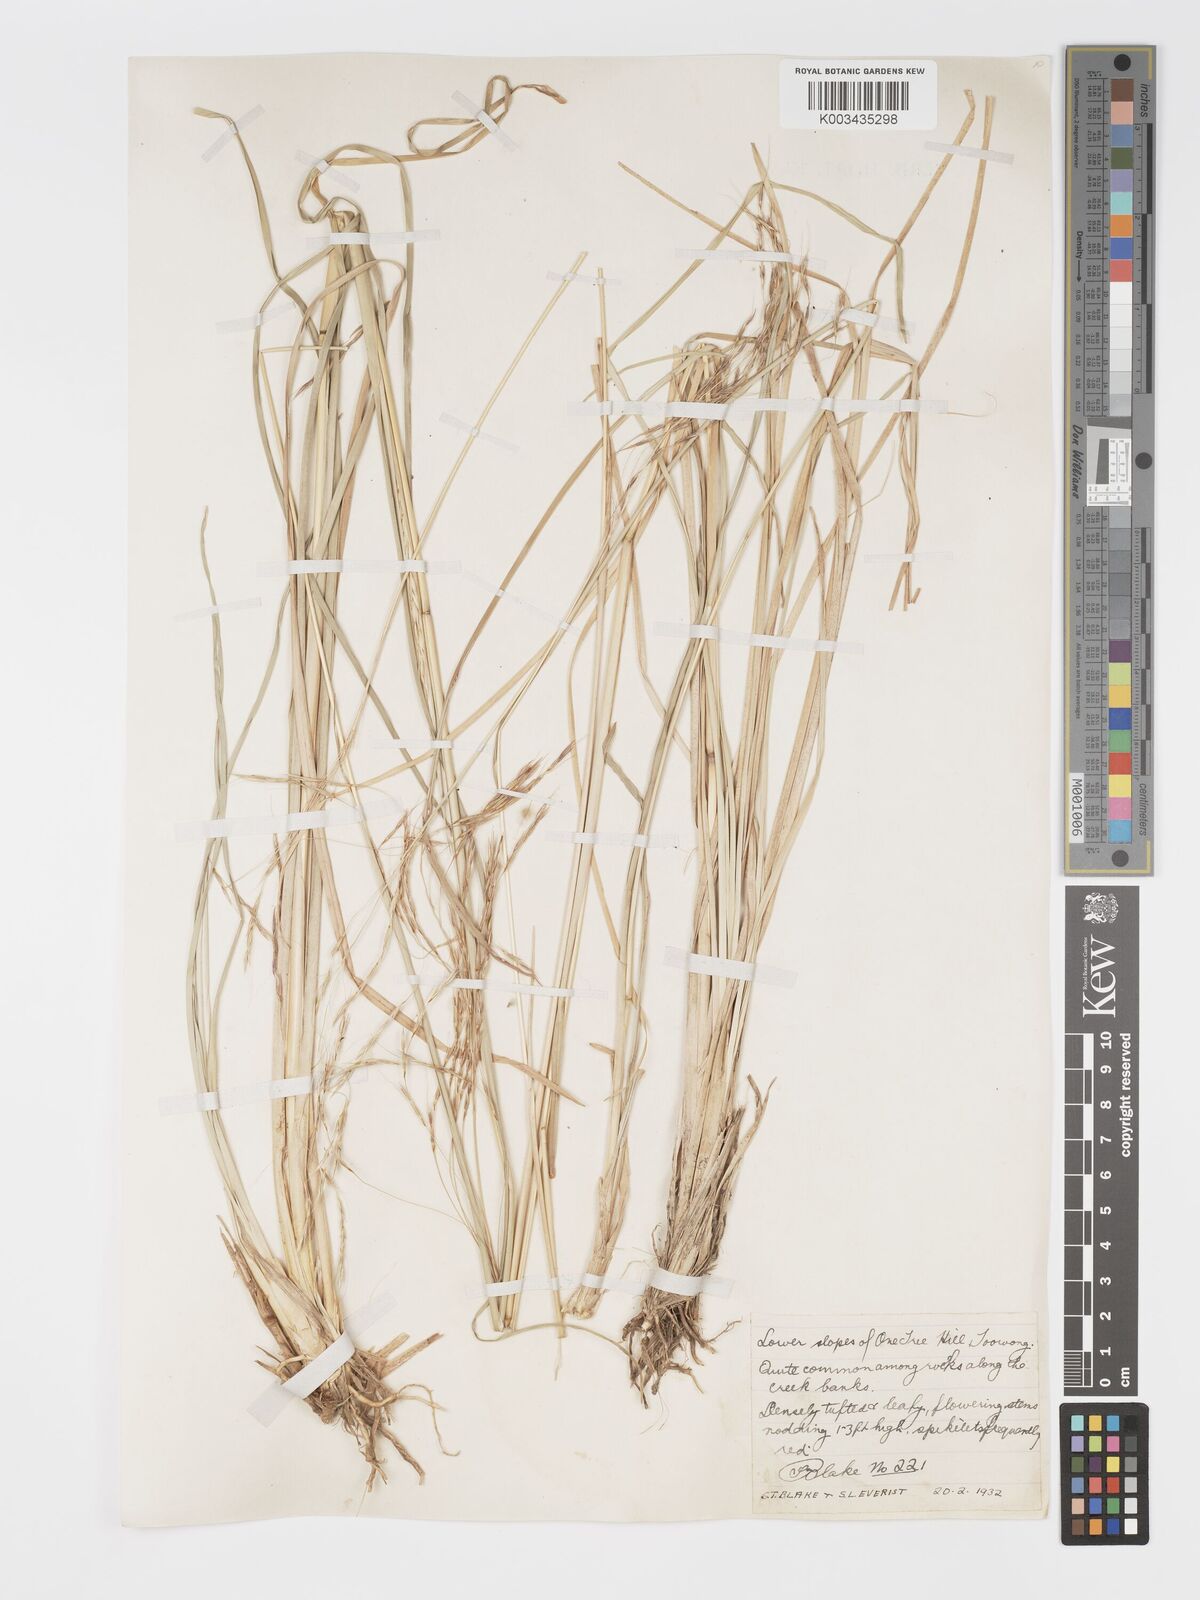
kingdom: Plantae
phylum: Tracheophyta
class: Liliopsida
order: Poales
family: Poaceae
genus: Chrysopogon
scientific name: Chrysopogon filipes
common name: Australian vetiver
